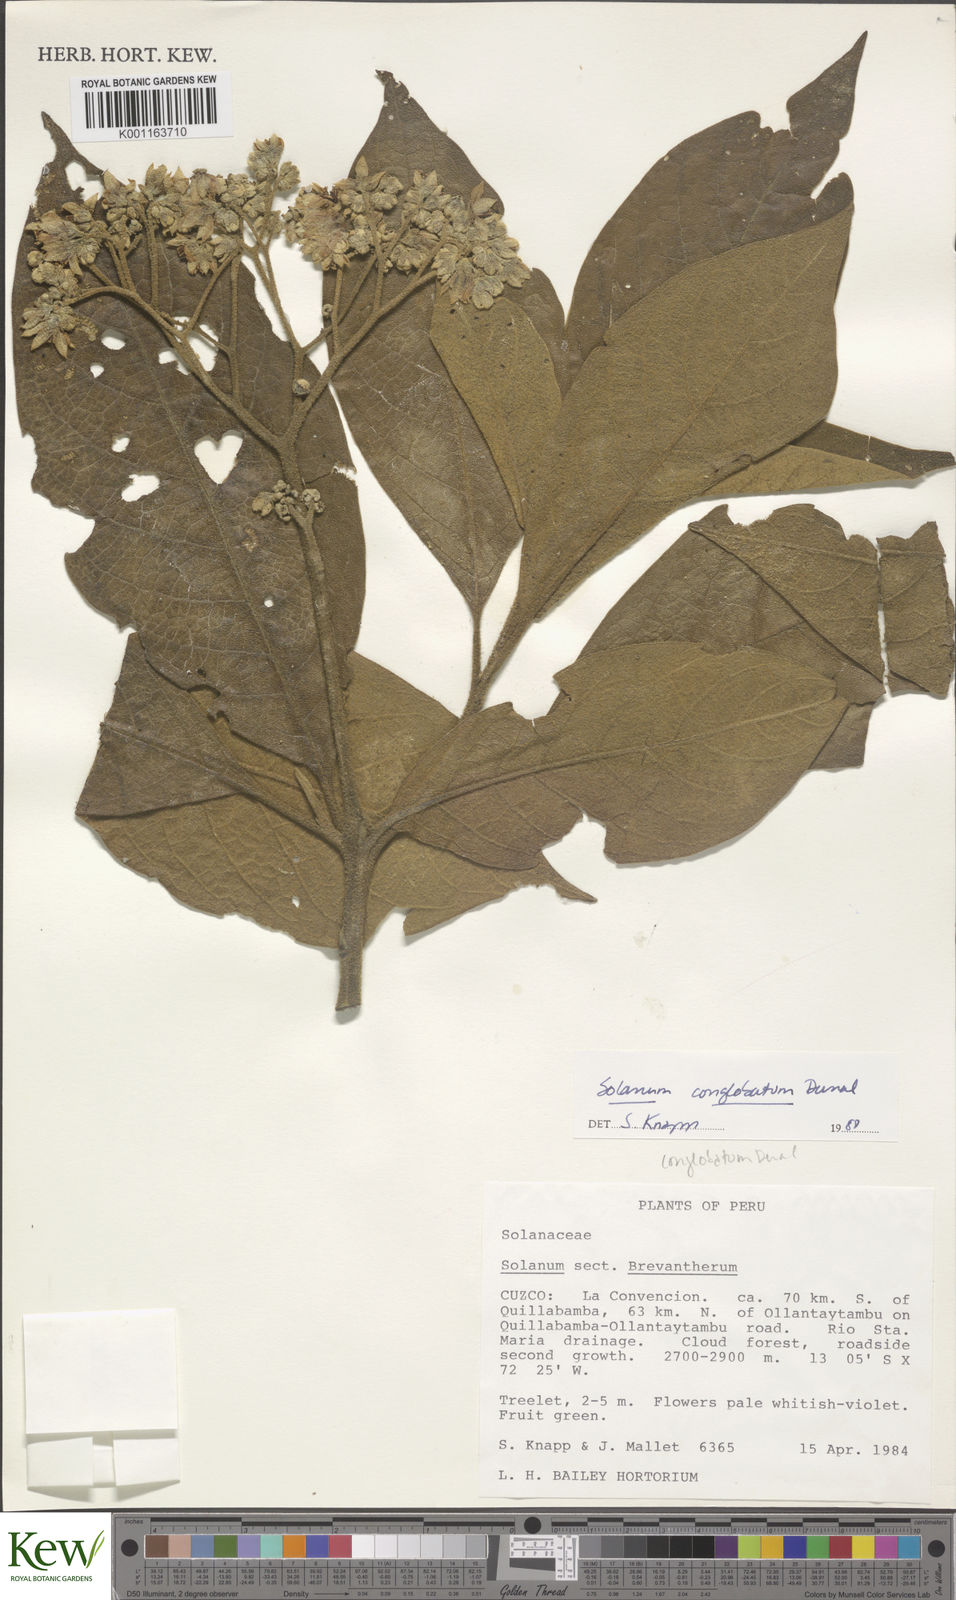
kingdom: Plantae
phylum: Tracheophyta
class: Magnoliopsida
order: Solanales
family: Solanaceae
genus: Solanum
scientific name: Solanum conglobatum
